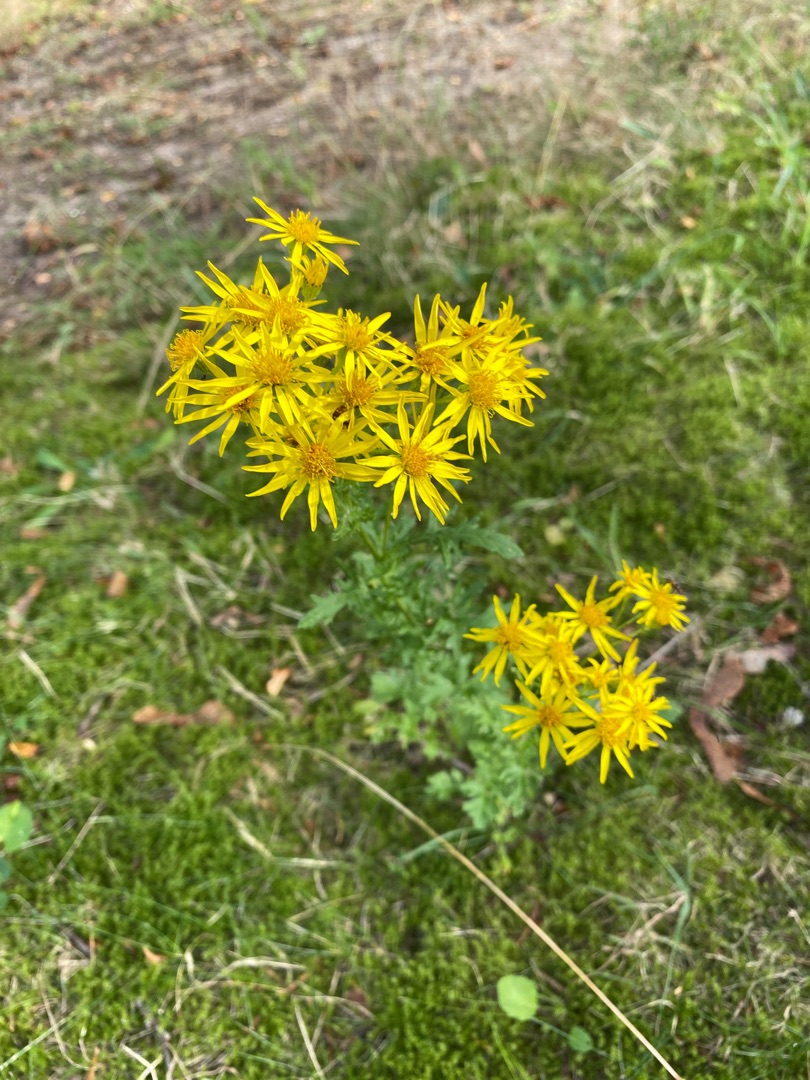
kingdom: Plantae
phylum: Tracheophyta
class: Magnoliopsida
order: Asterales
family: Asteraceae
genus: Jacobaea
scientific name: Jacobaea vulgaris
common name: Eng-brandbæger
